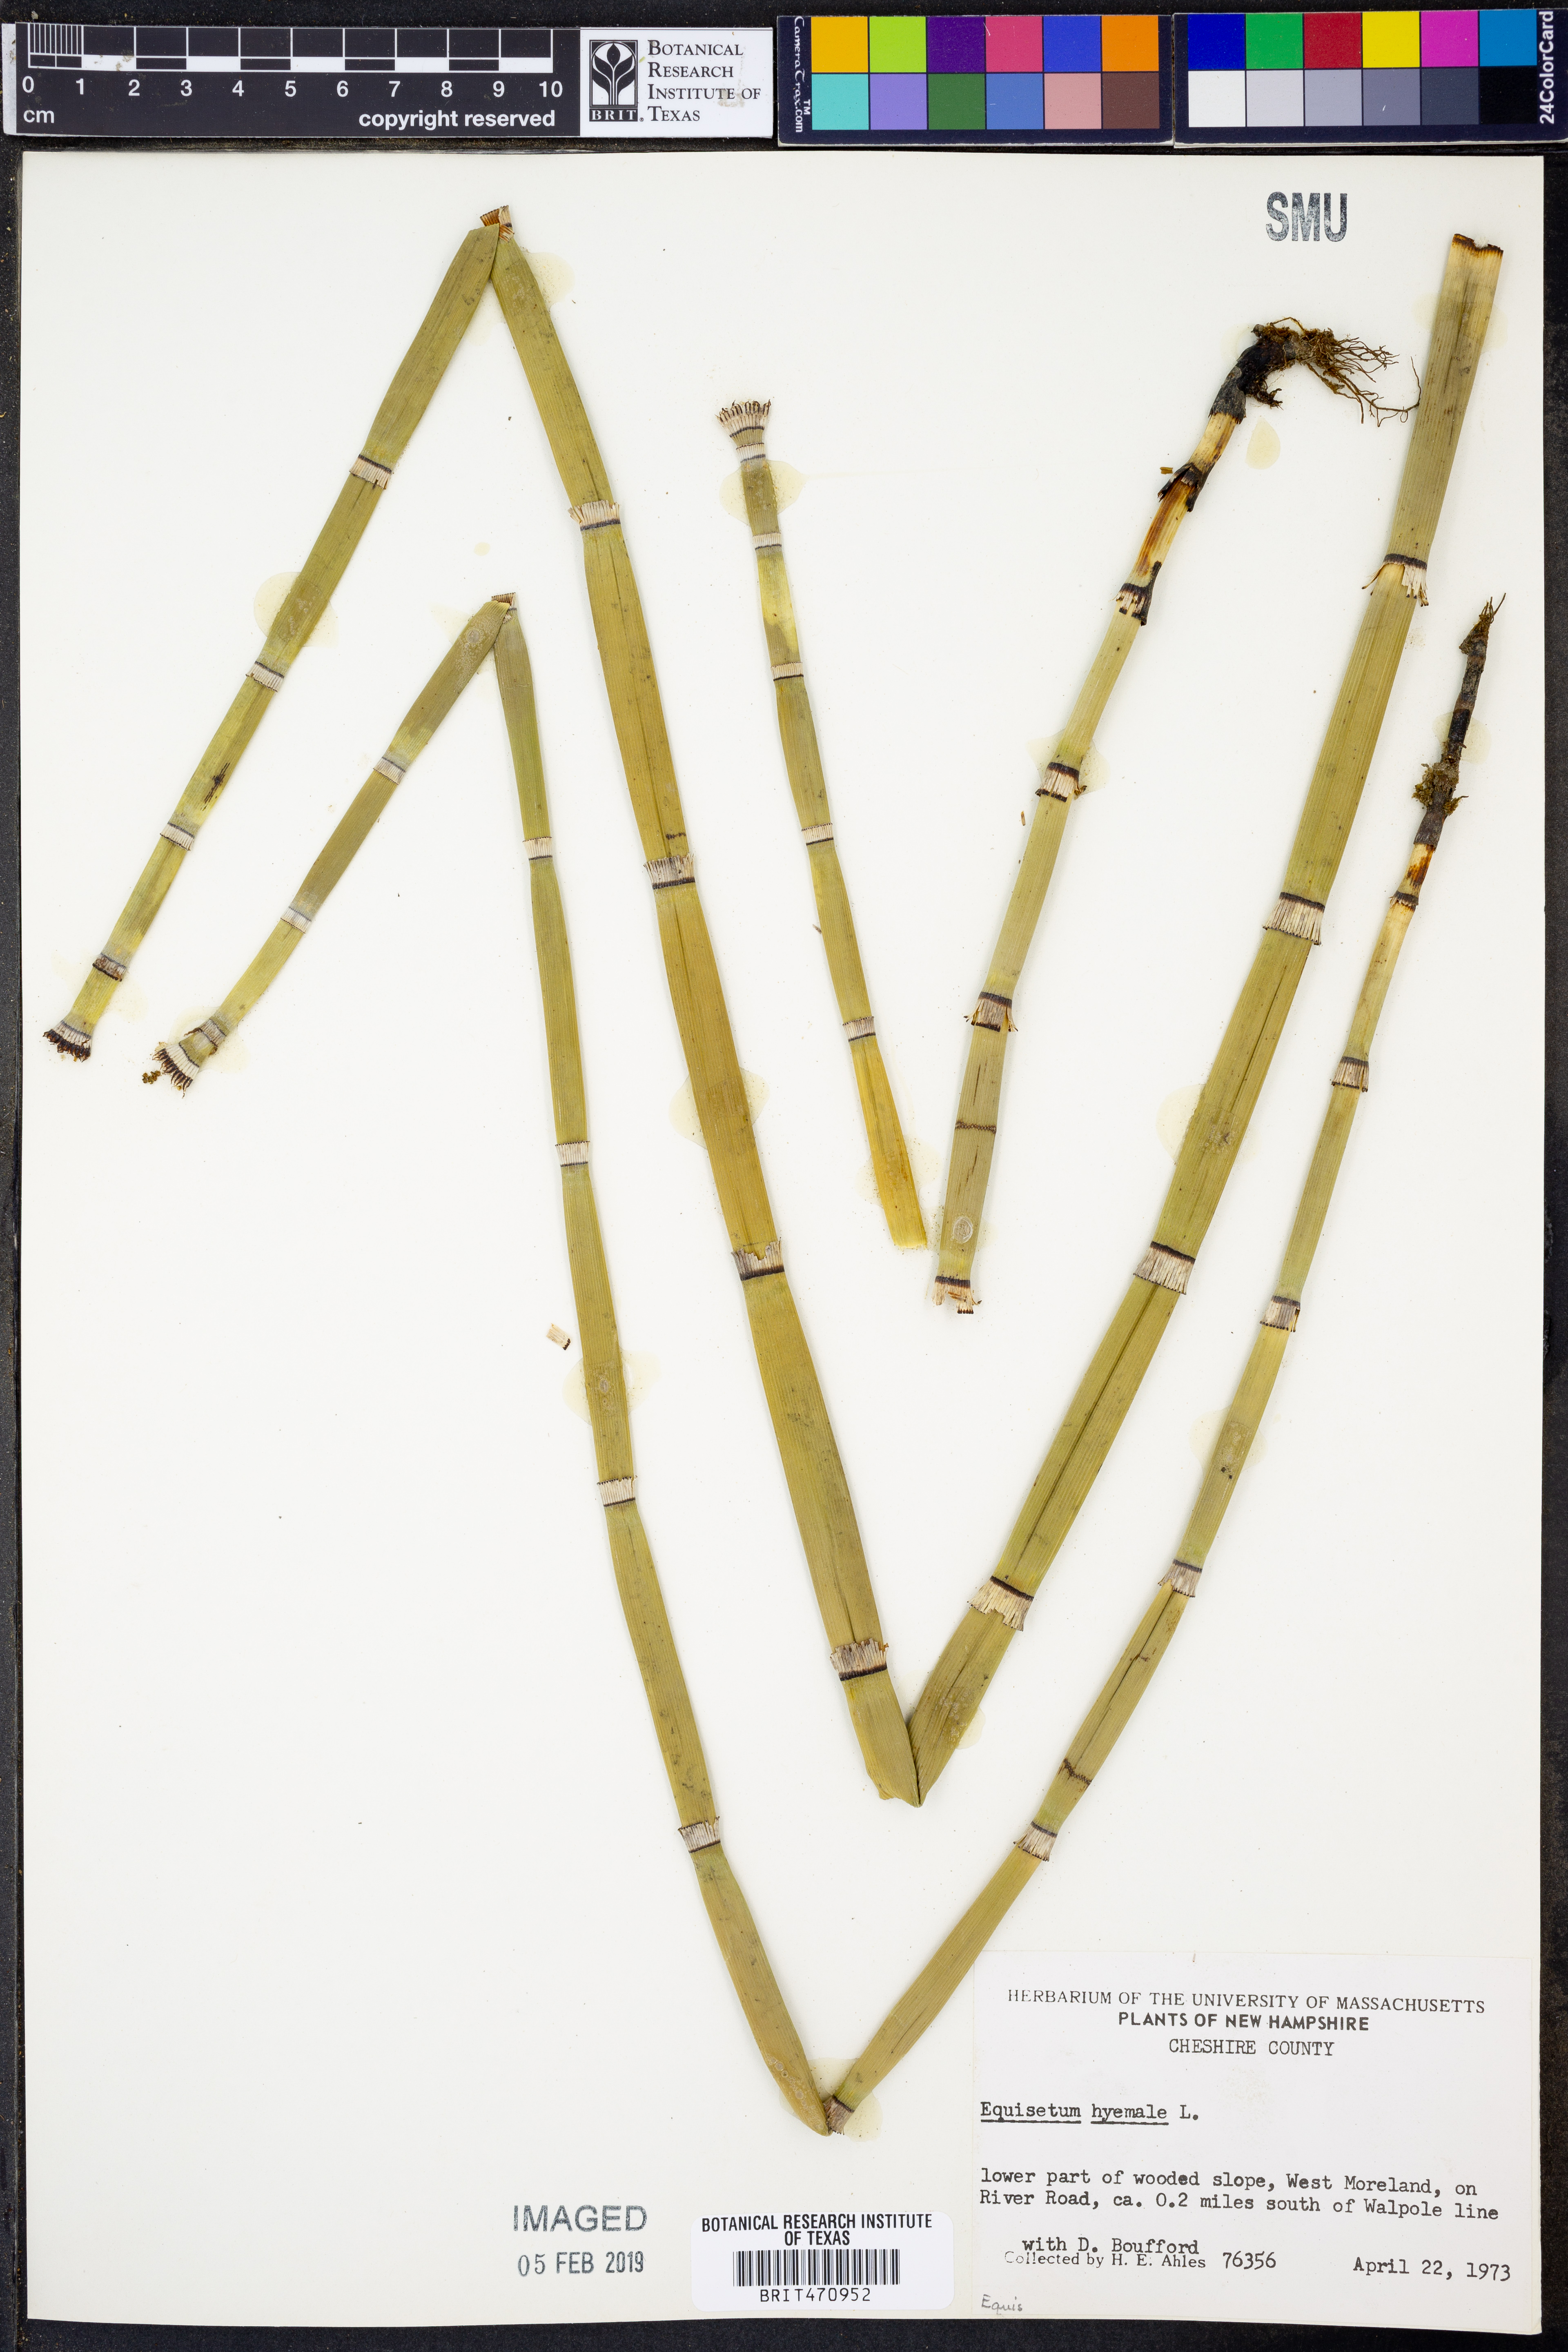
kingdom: Plantae
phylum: Tracheophyta
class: Polypodiopsida
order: Equisetales
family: Equisetaceae
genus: Equisetum
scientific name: Equisetum hyemale
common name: Rough horsetail
